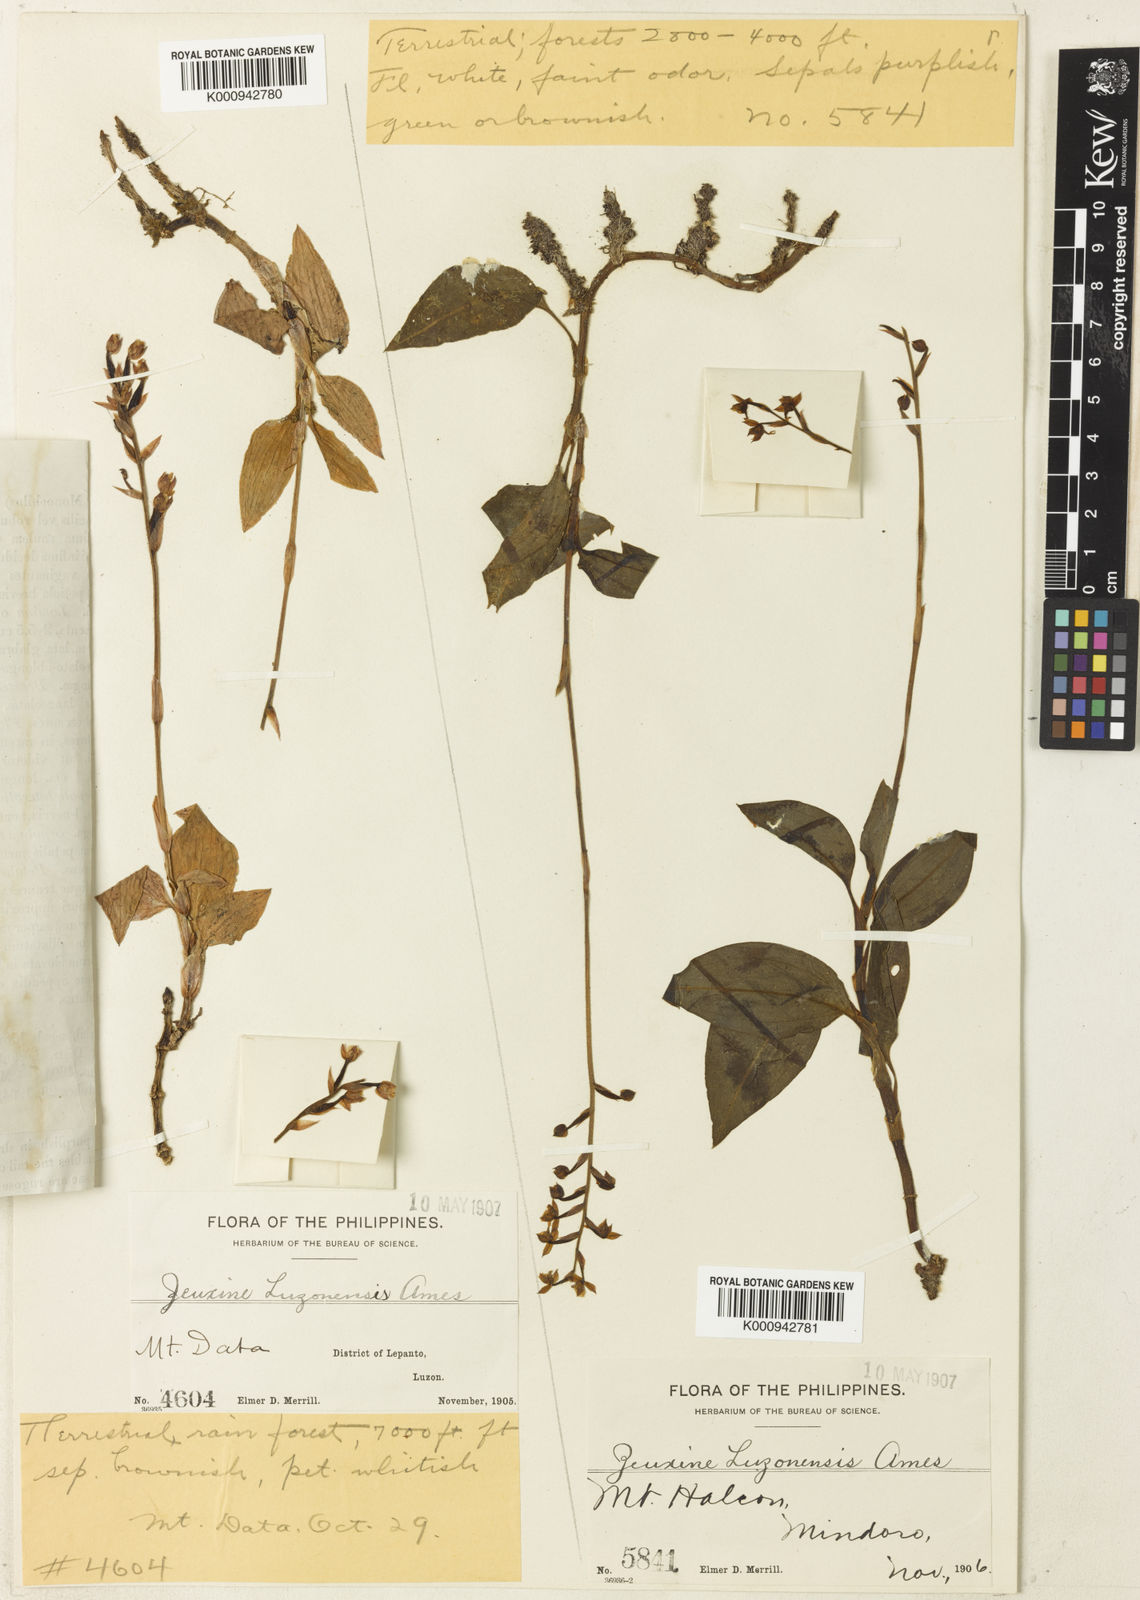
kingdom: Plantae
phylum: Tracheophyta
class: Liliopsida
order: Asparagales
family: Orchidaceae
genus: Rhomboda
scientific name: Rhomboda lanceolata
